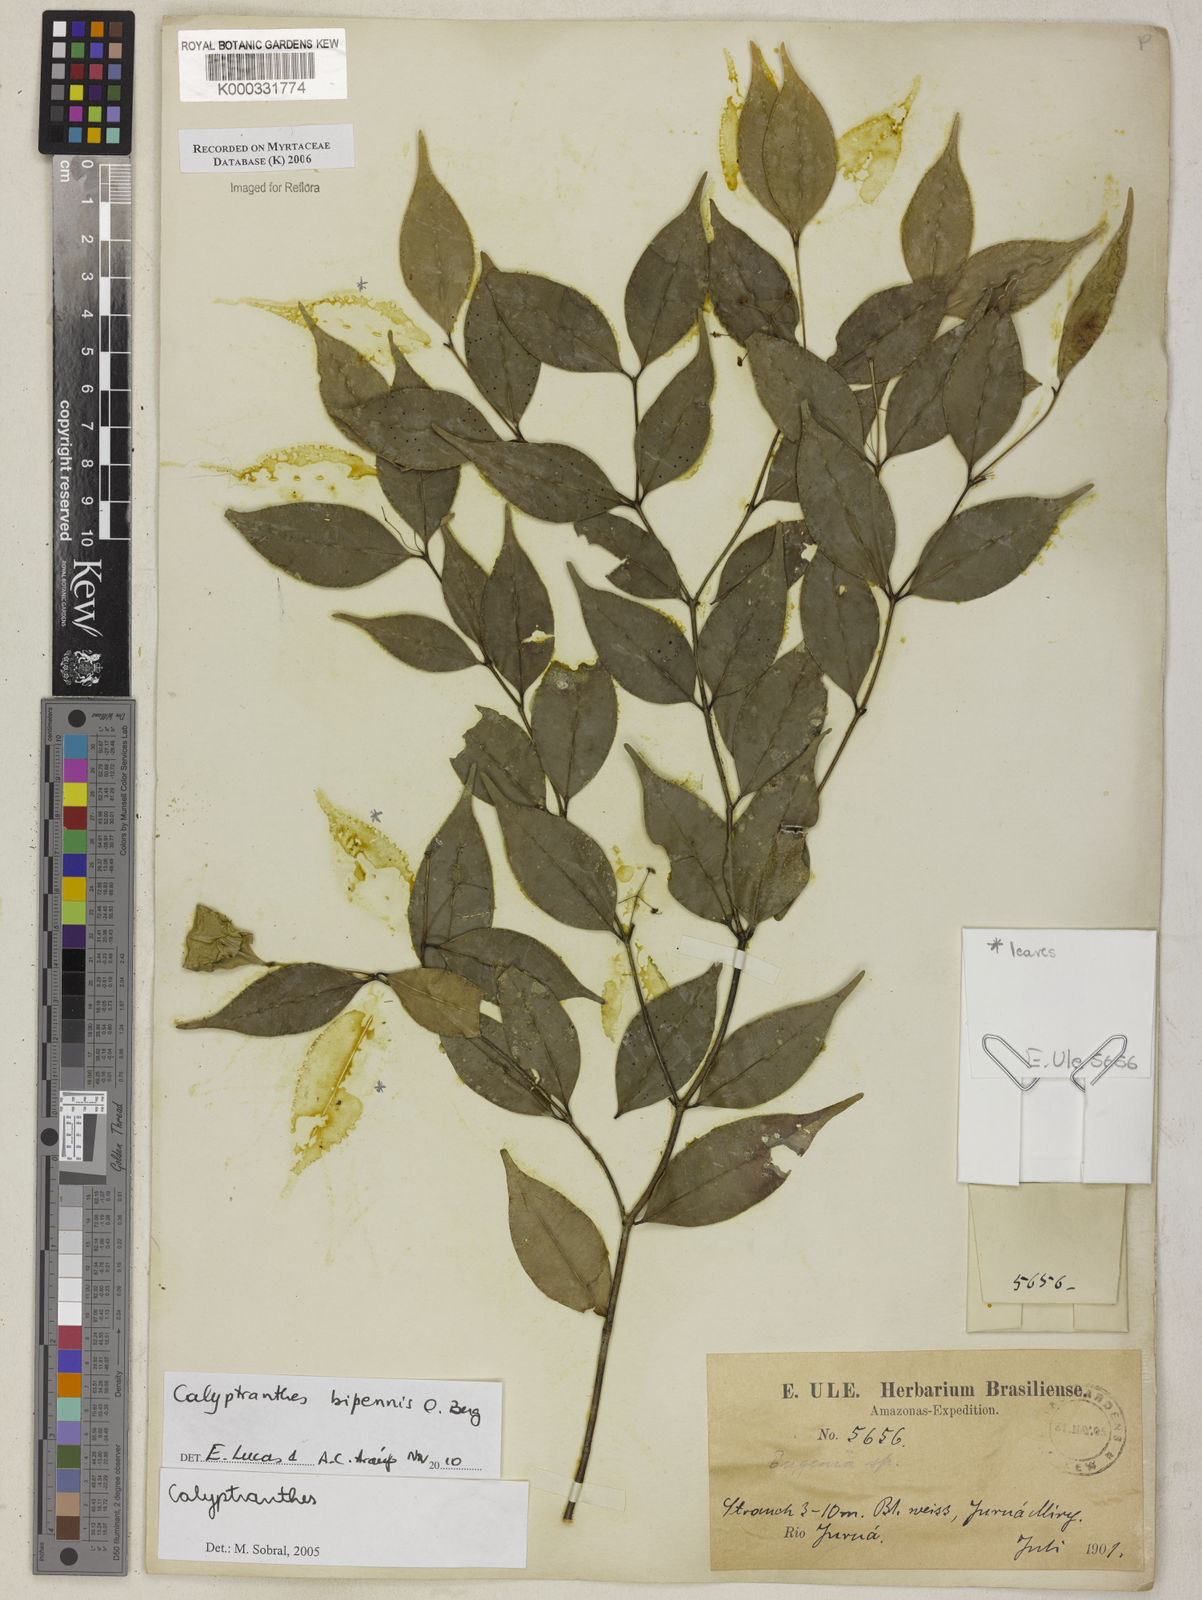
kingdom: Plantae
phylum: Tracheophyta
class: Magnoliopsida
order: Myrtales
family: Myrtaceae
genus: Calyptranthes
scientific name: Calyptranthes
